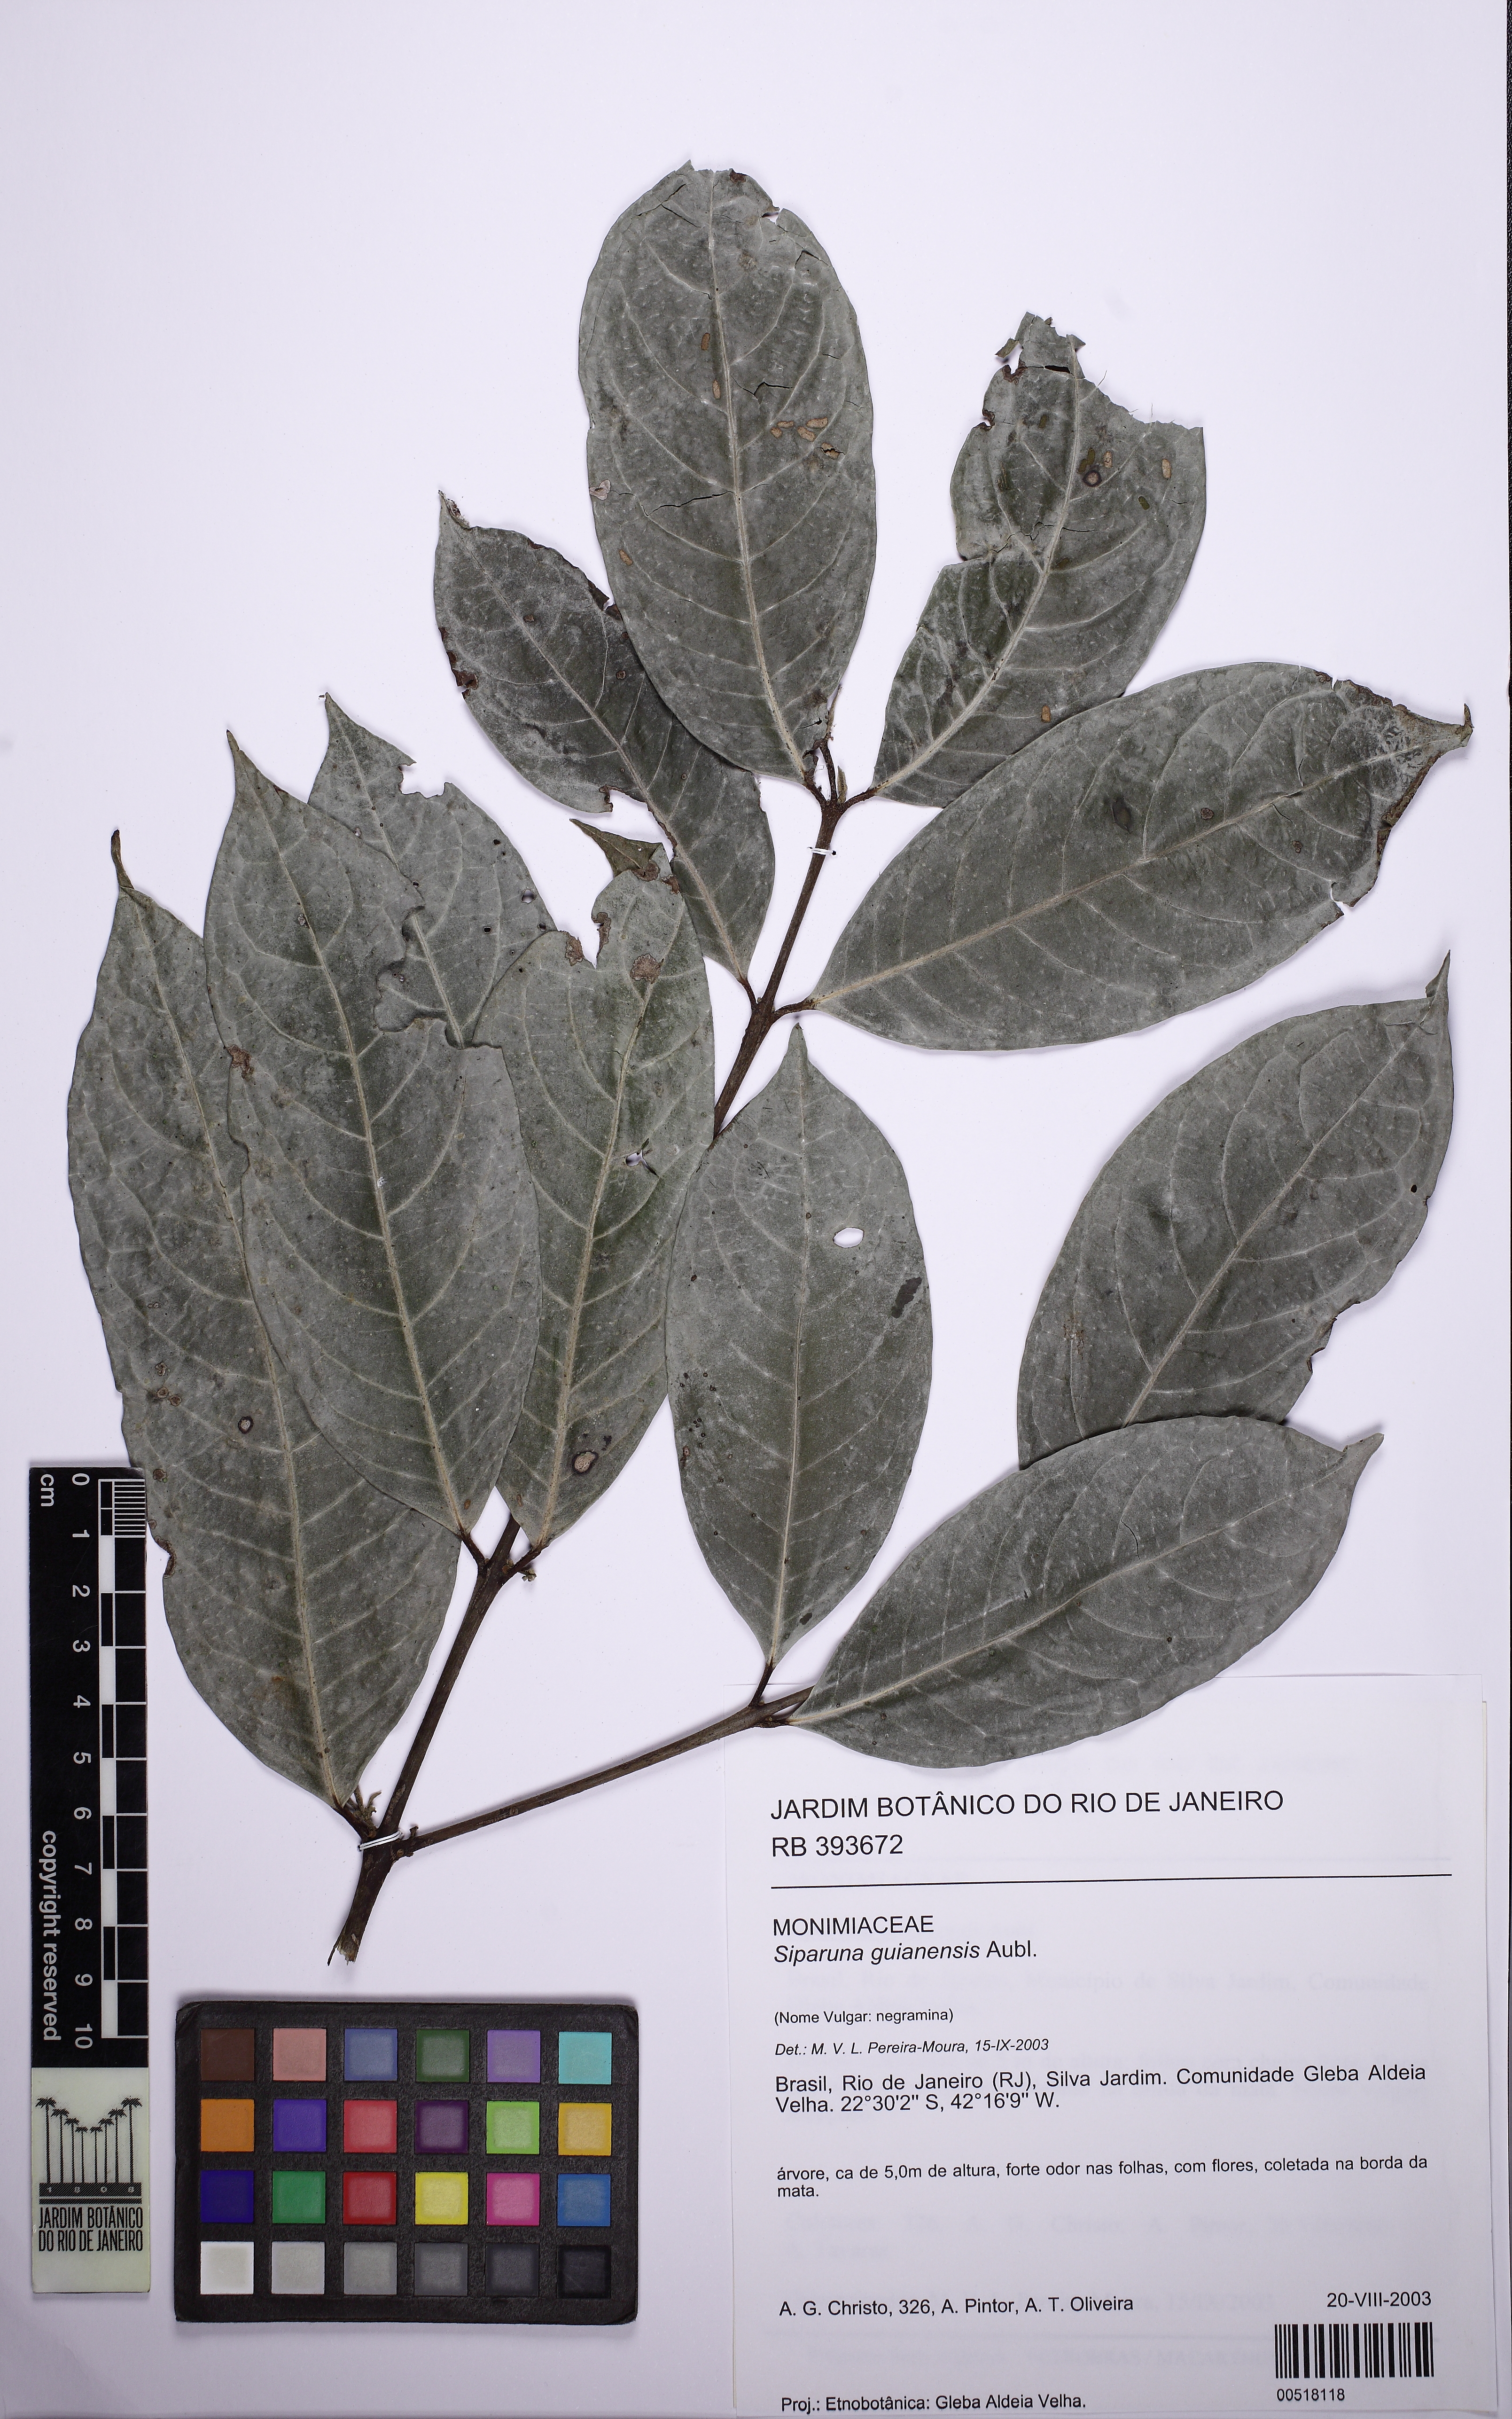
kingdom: Plantae
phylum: Tracheophyta
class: Magnoliopsida
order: Laurales
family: Siparunaceae
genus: Siparuna
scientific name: Siparuna guianensis
